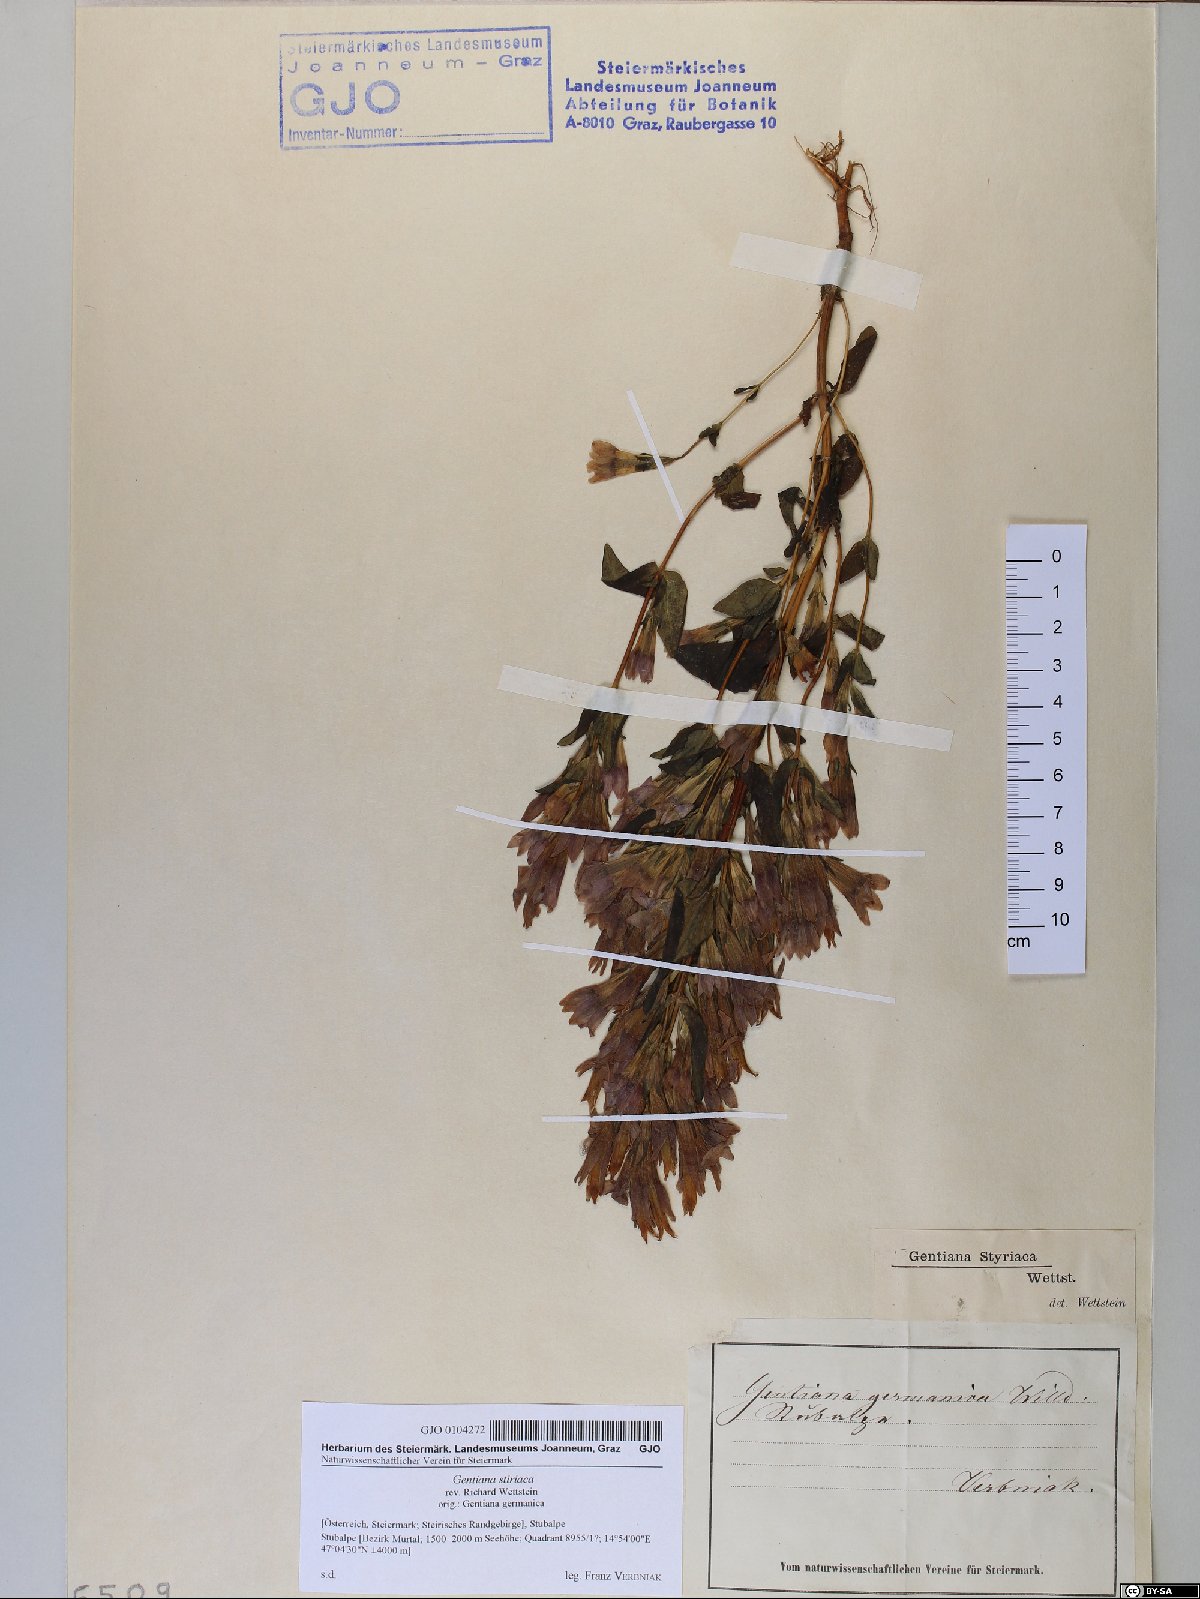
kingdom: Plantae
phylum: Tracheophyta
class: Magnoliopsida
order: Gentianales
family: Gentianaceae
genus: Gentianella
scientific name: Gentianella rhaetica
